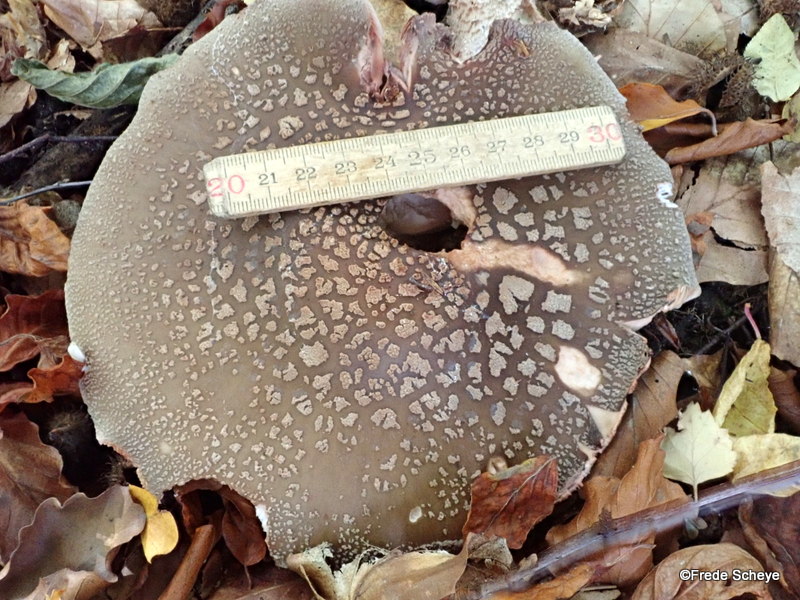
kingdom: Fungi
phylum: Basidiomycota
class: Agaricomycetes
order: Agaricales
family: Amanitaceae
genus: Amanita
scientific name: Amanita rubescens
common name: rødmende fluesvamp
